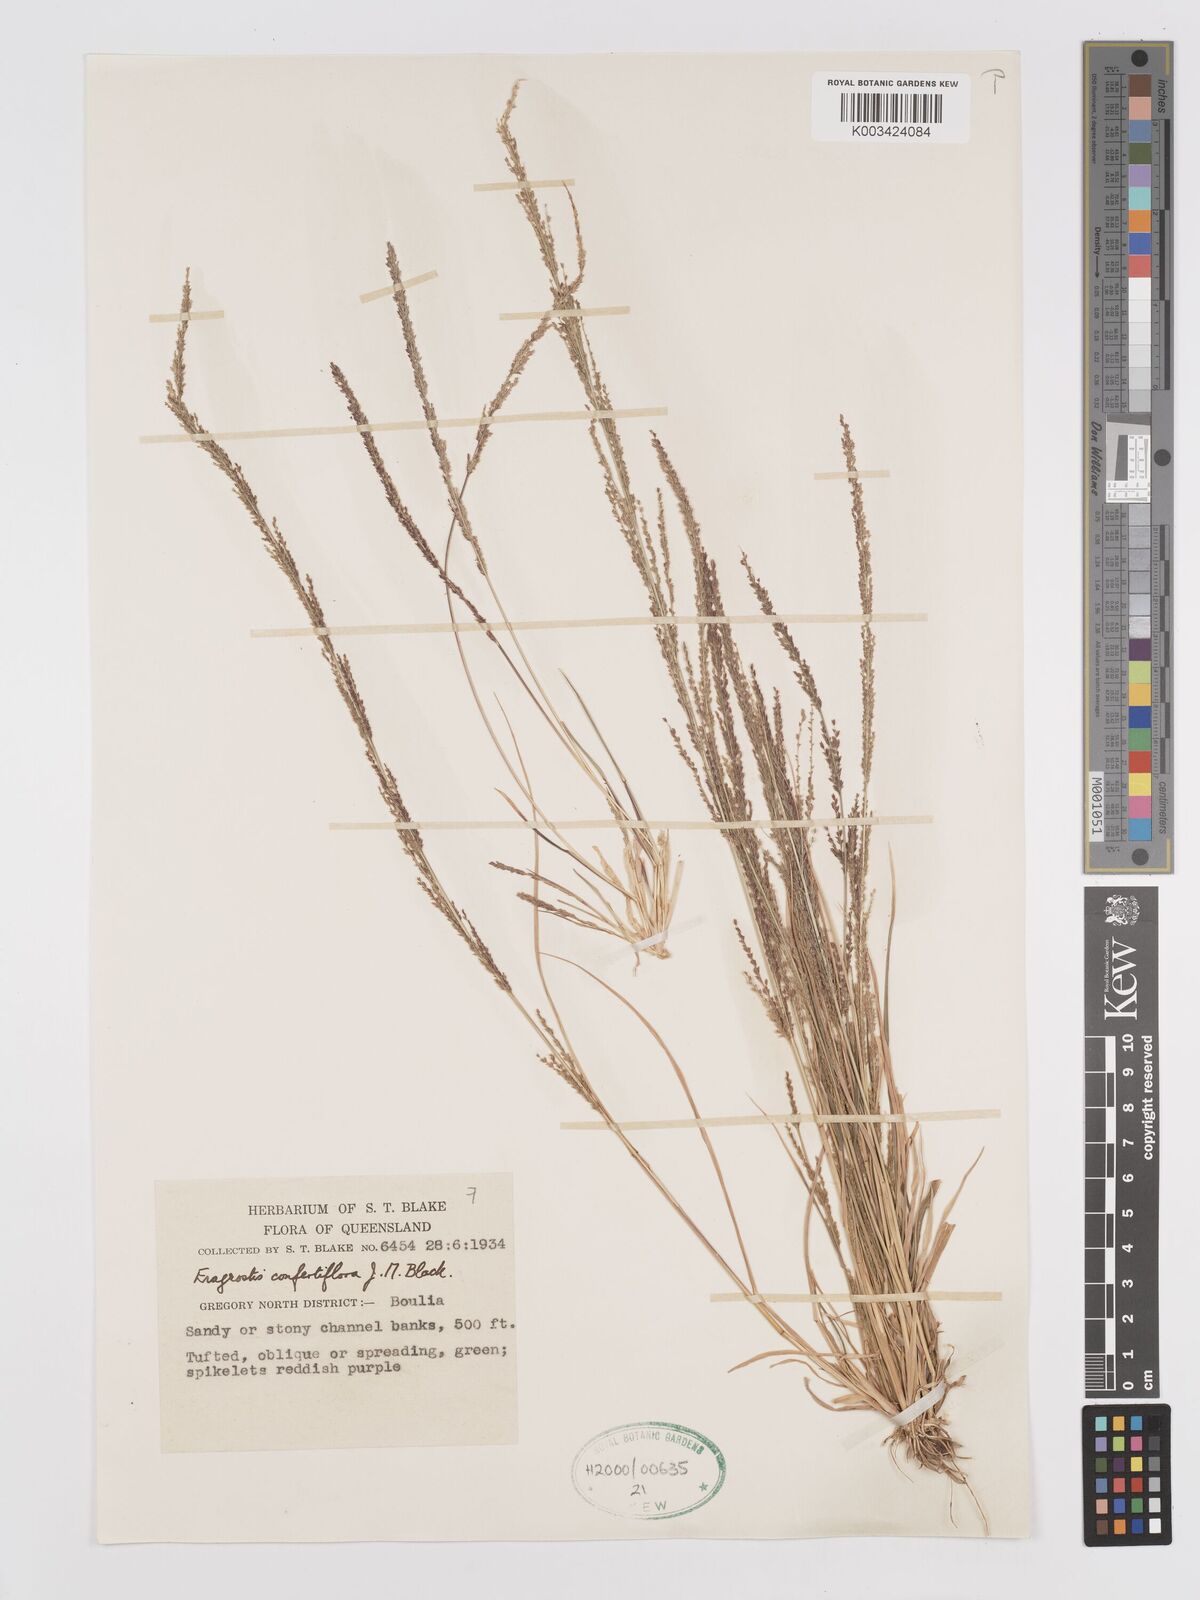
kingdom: Plantae
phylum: Tracheophyta
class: Liliopsida
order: Poales
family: Poaceae
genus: Eragrostis
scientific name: Eragrostis confertiflora
